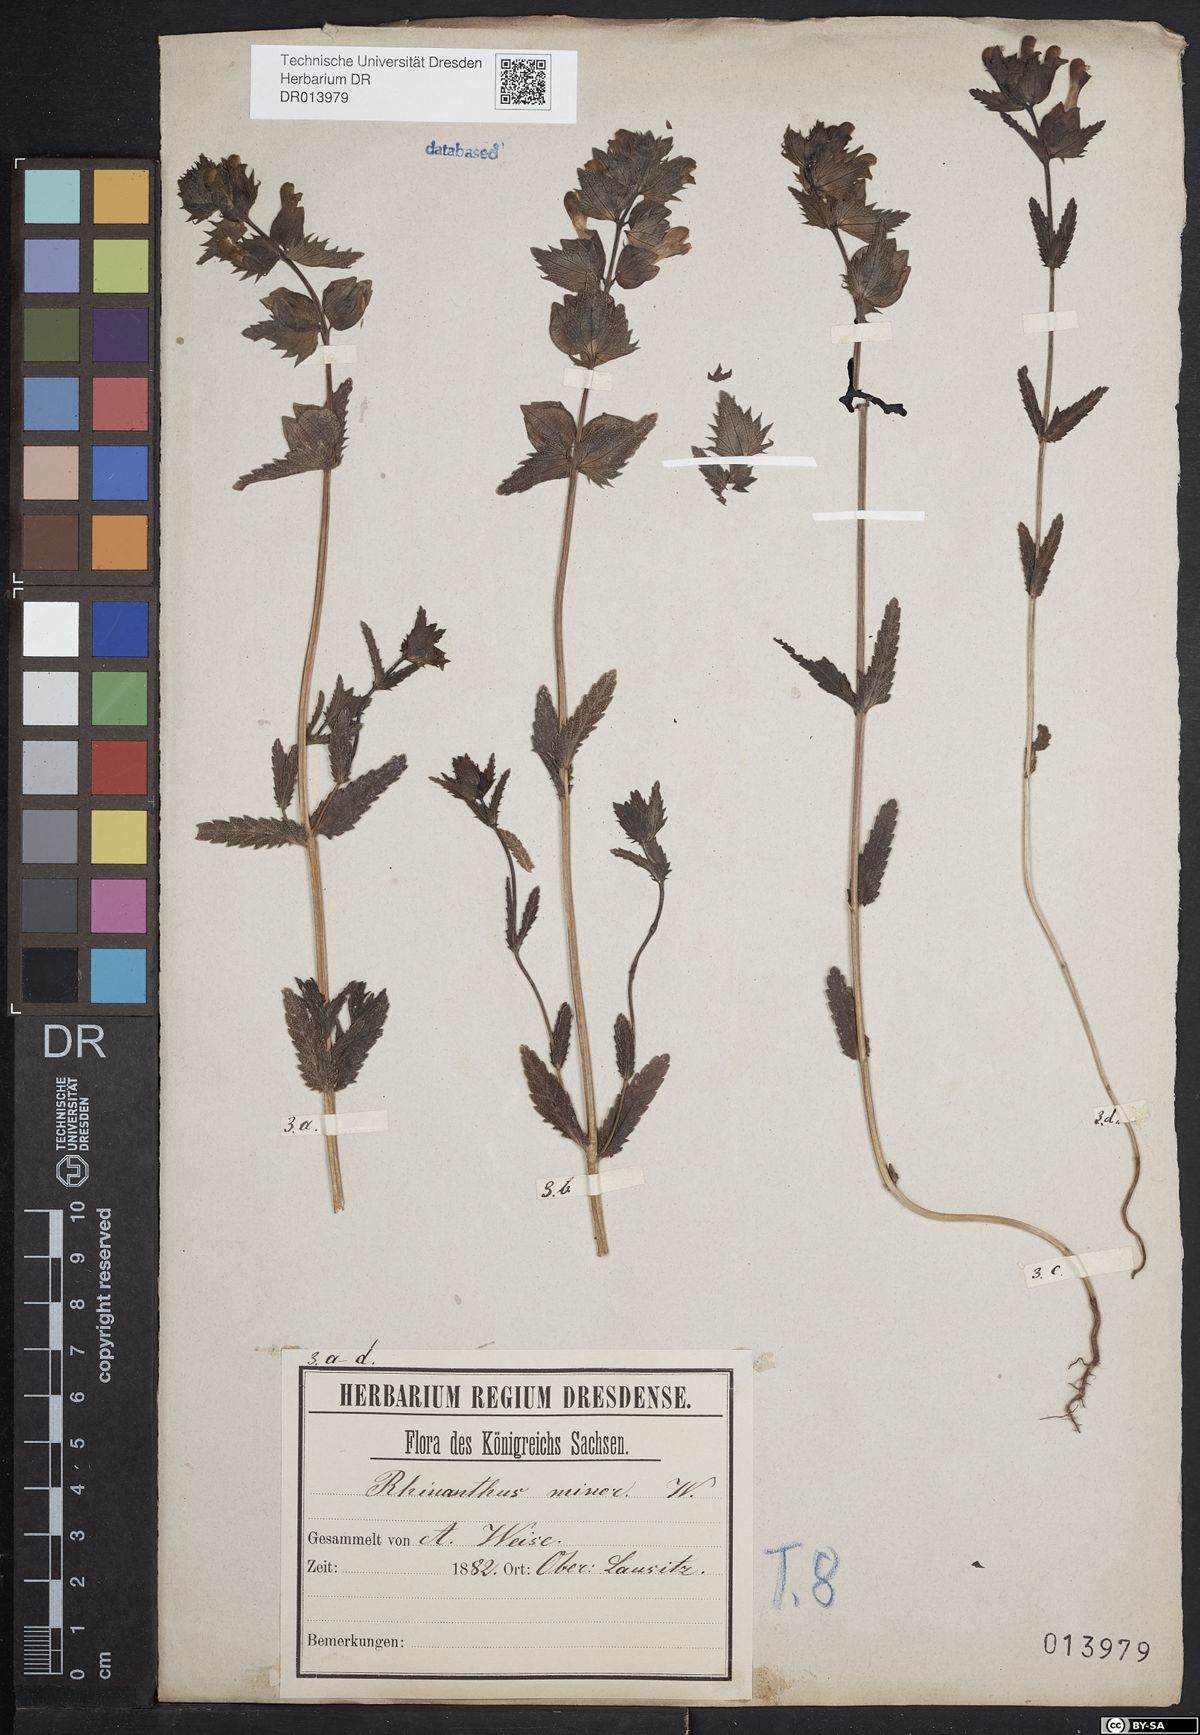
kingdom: Plantae
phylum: Tracheophyta
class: Magnoliopsida
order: Lamiales
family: Orobanchaceae
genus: Rhinanthus
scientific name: Rhinanthus minor
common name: Yellow-rattle
